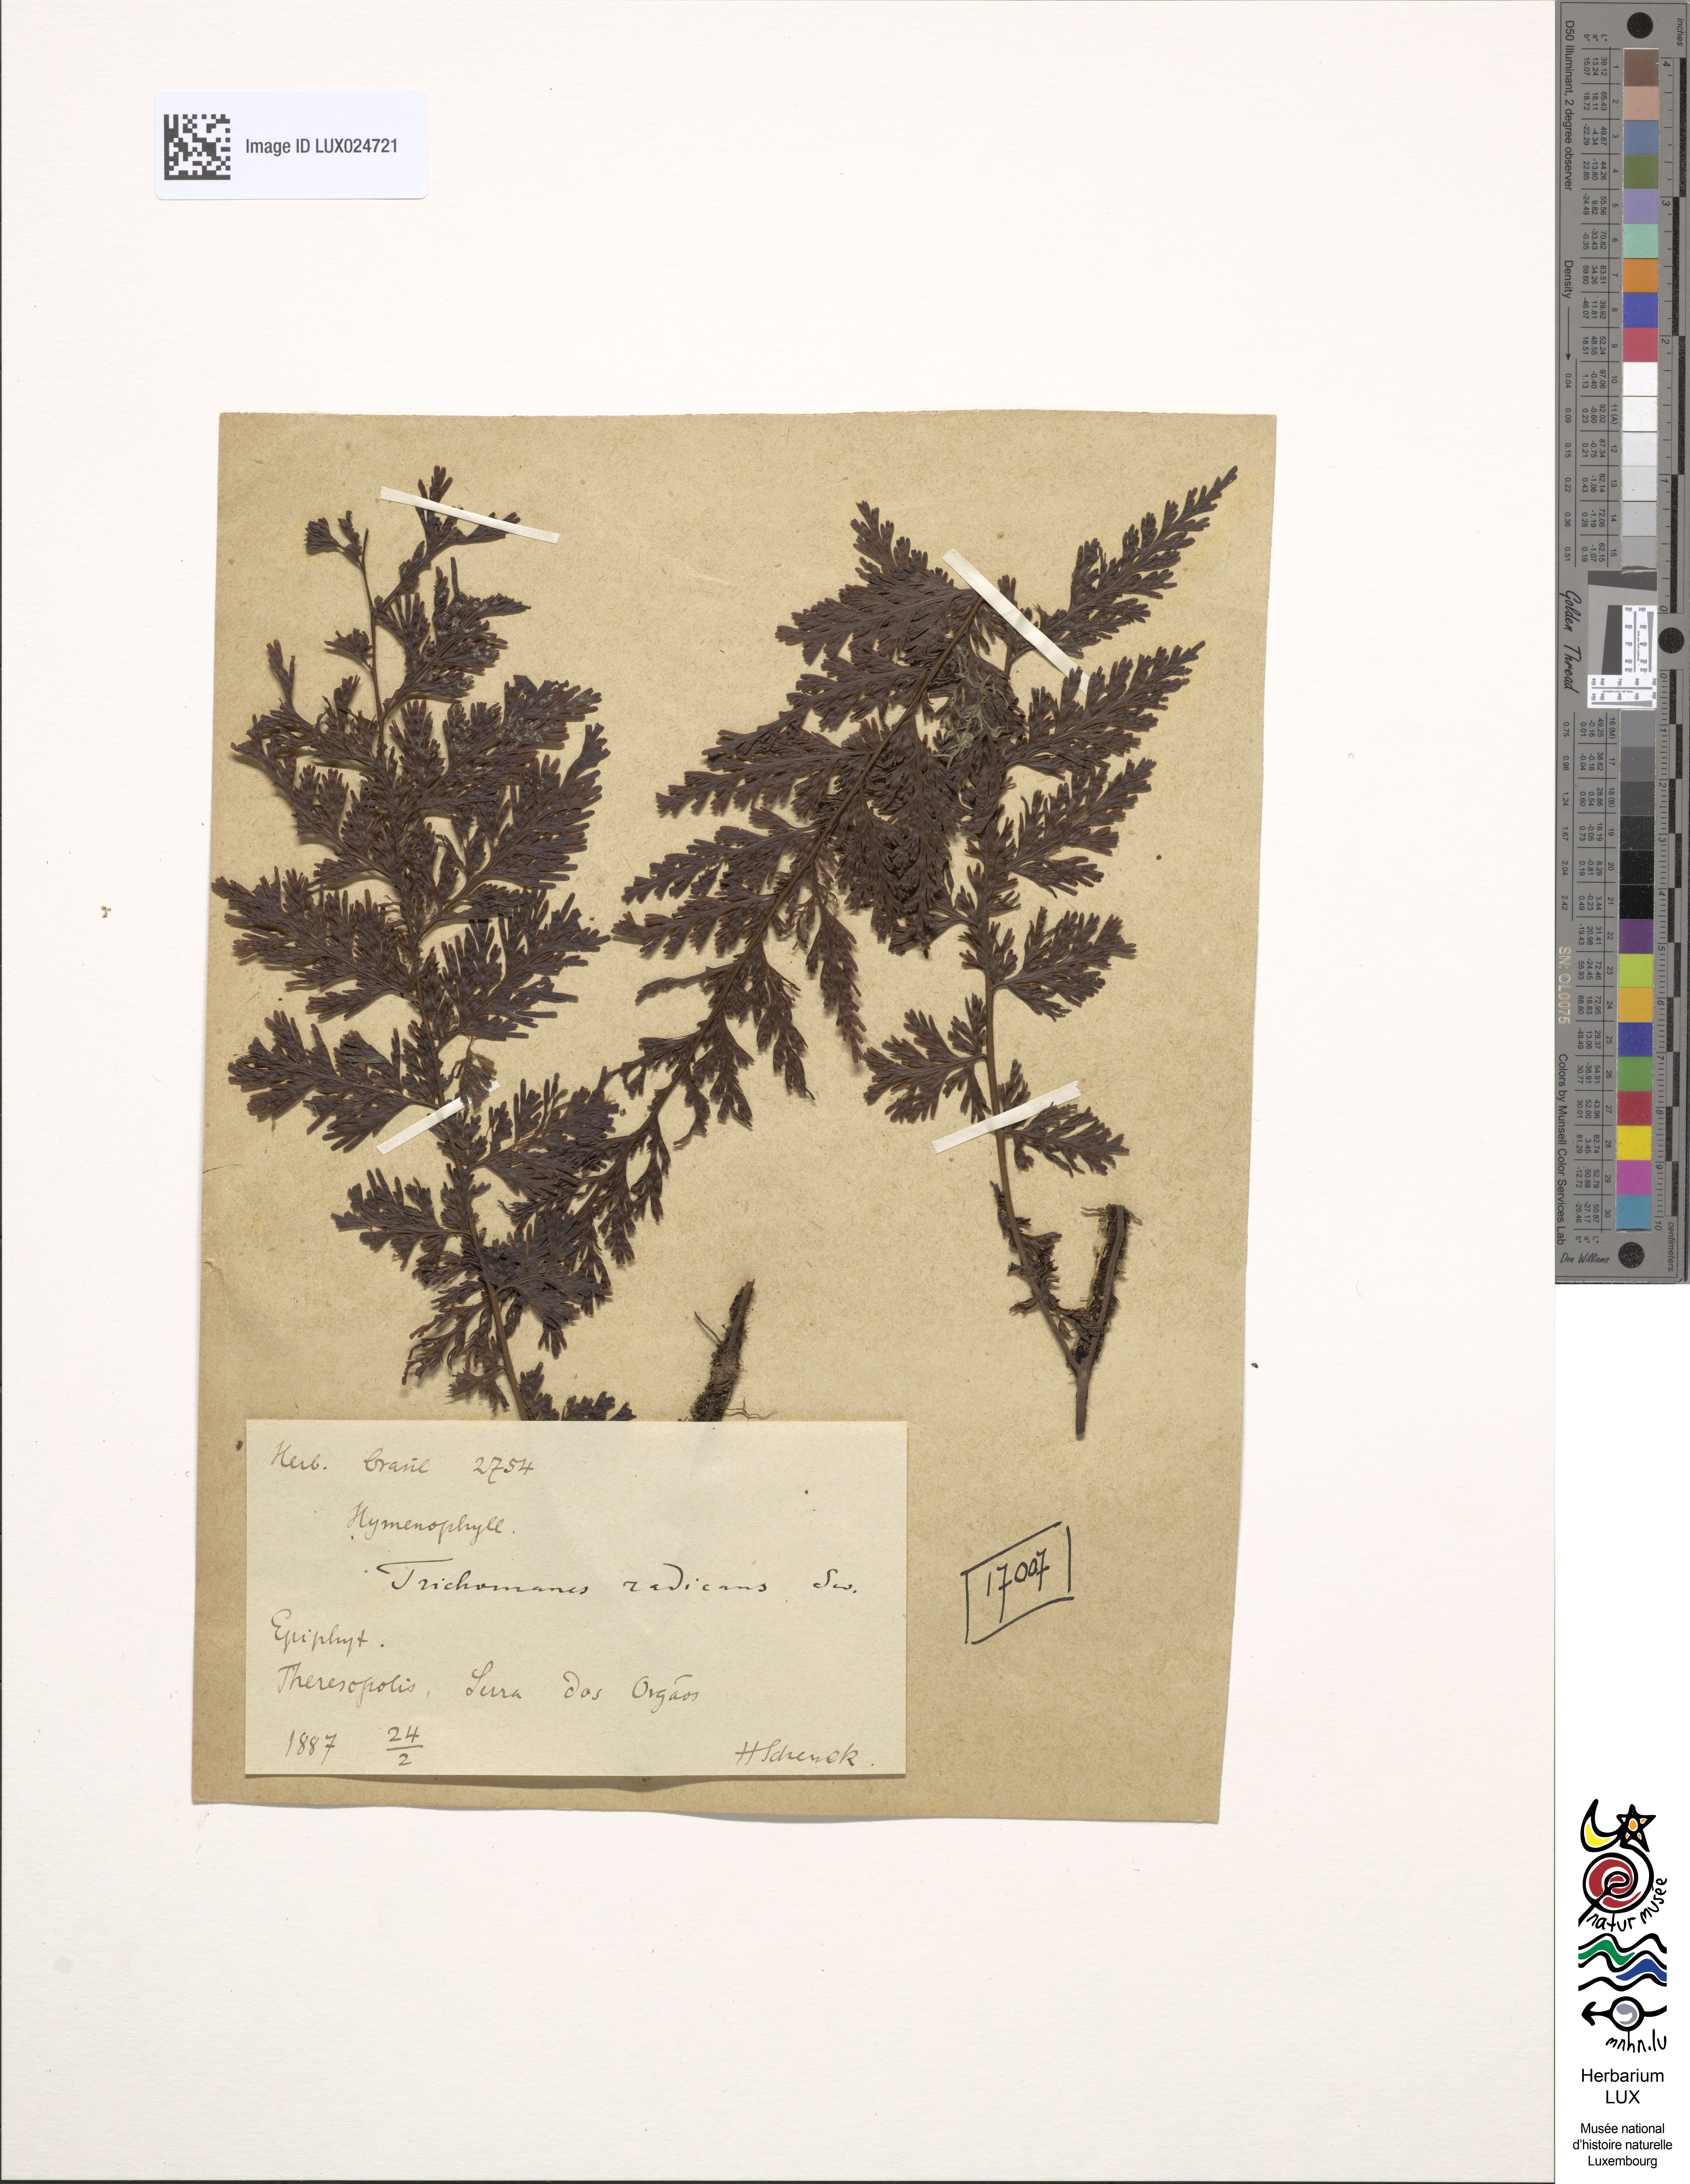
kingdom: Plantae
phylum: Tracheophyta
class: Polypodiopsida
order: Hymenophyllales
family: Hymenophyllaceae
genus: Vandenboschia
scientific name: Vandenboschia speciosa
